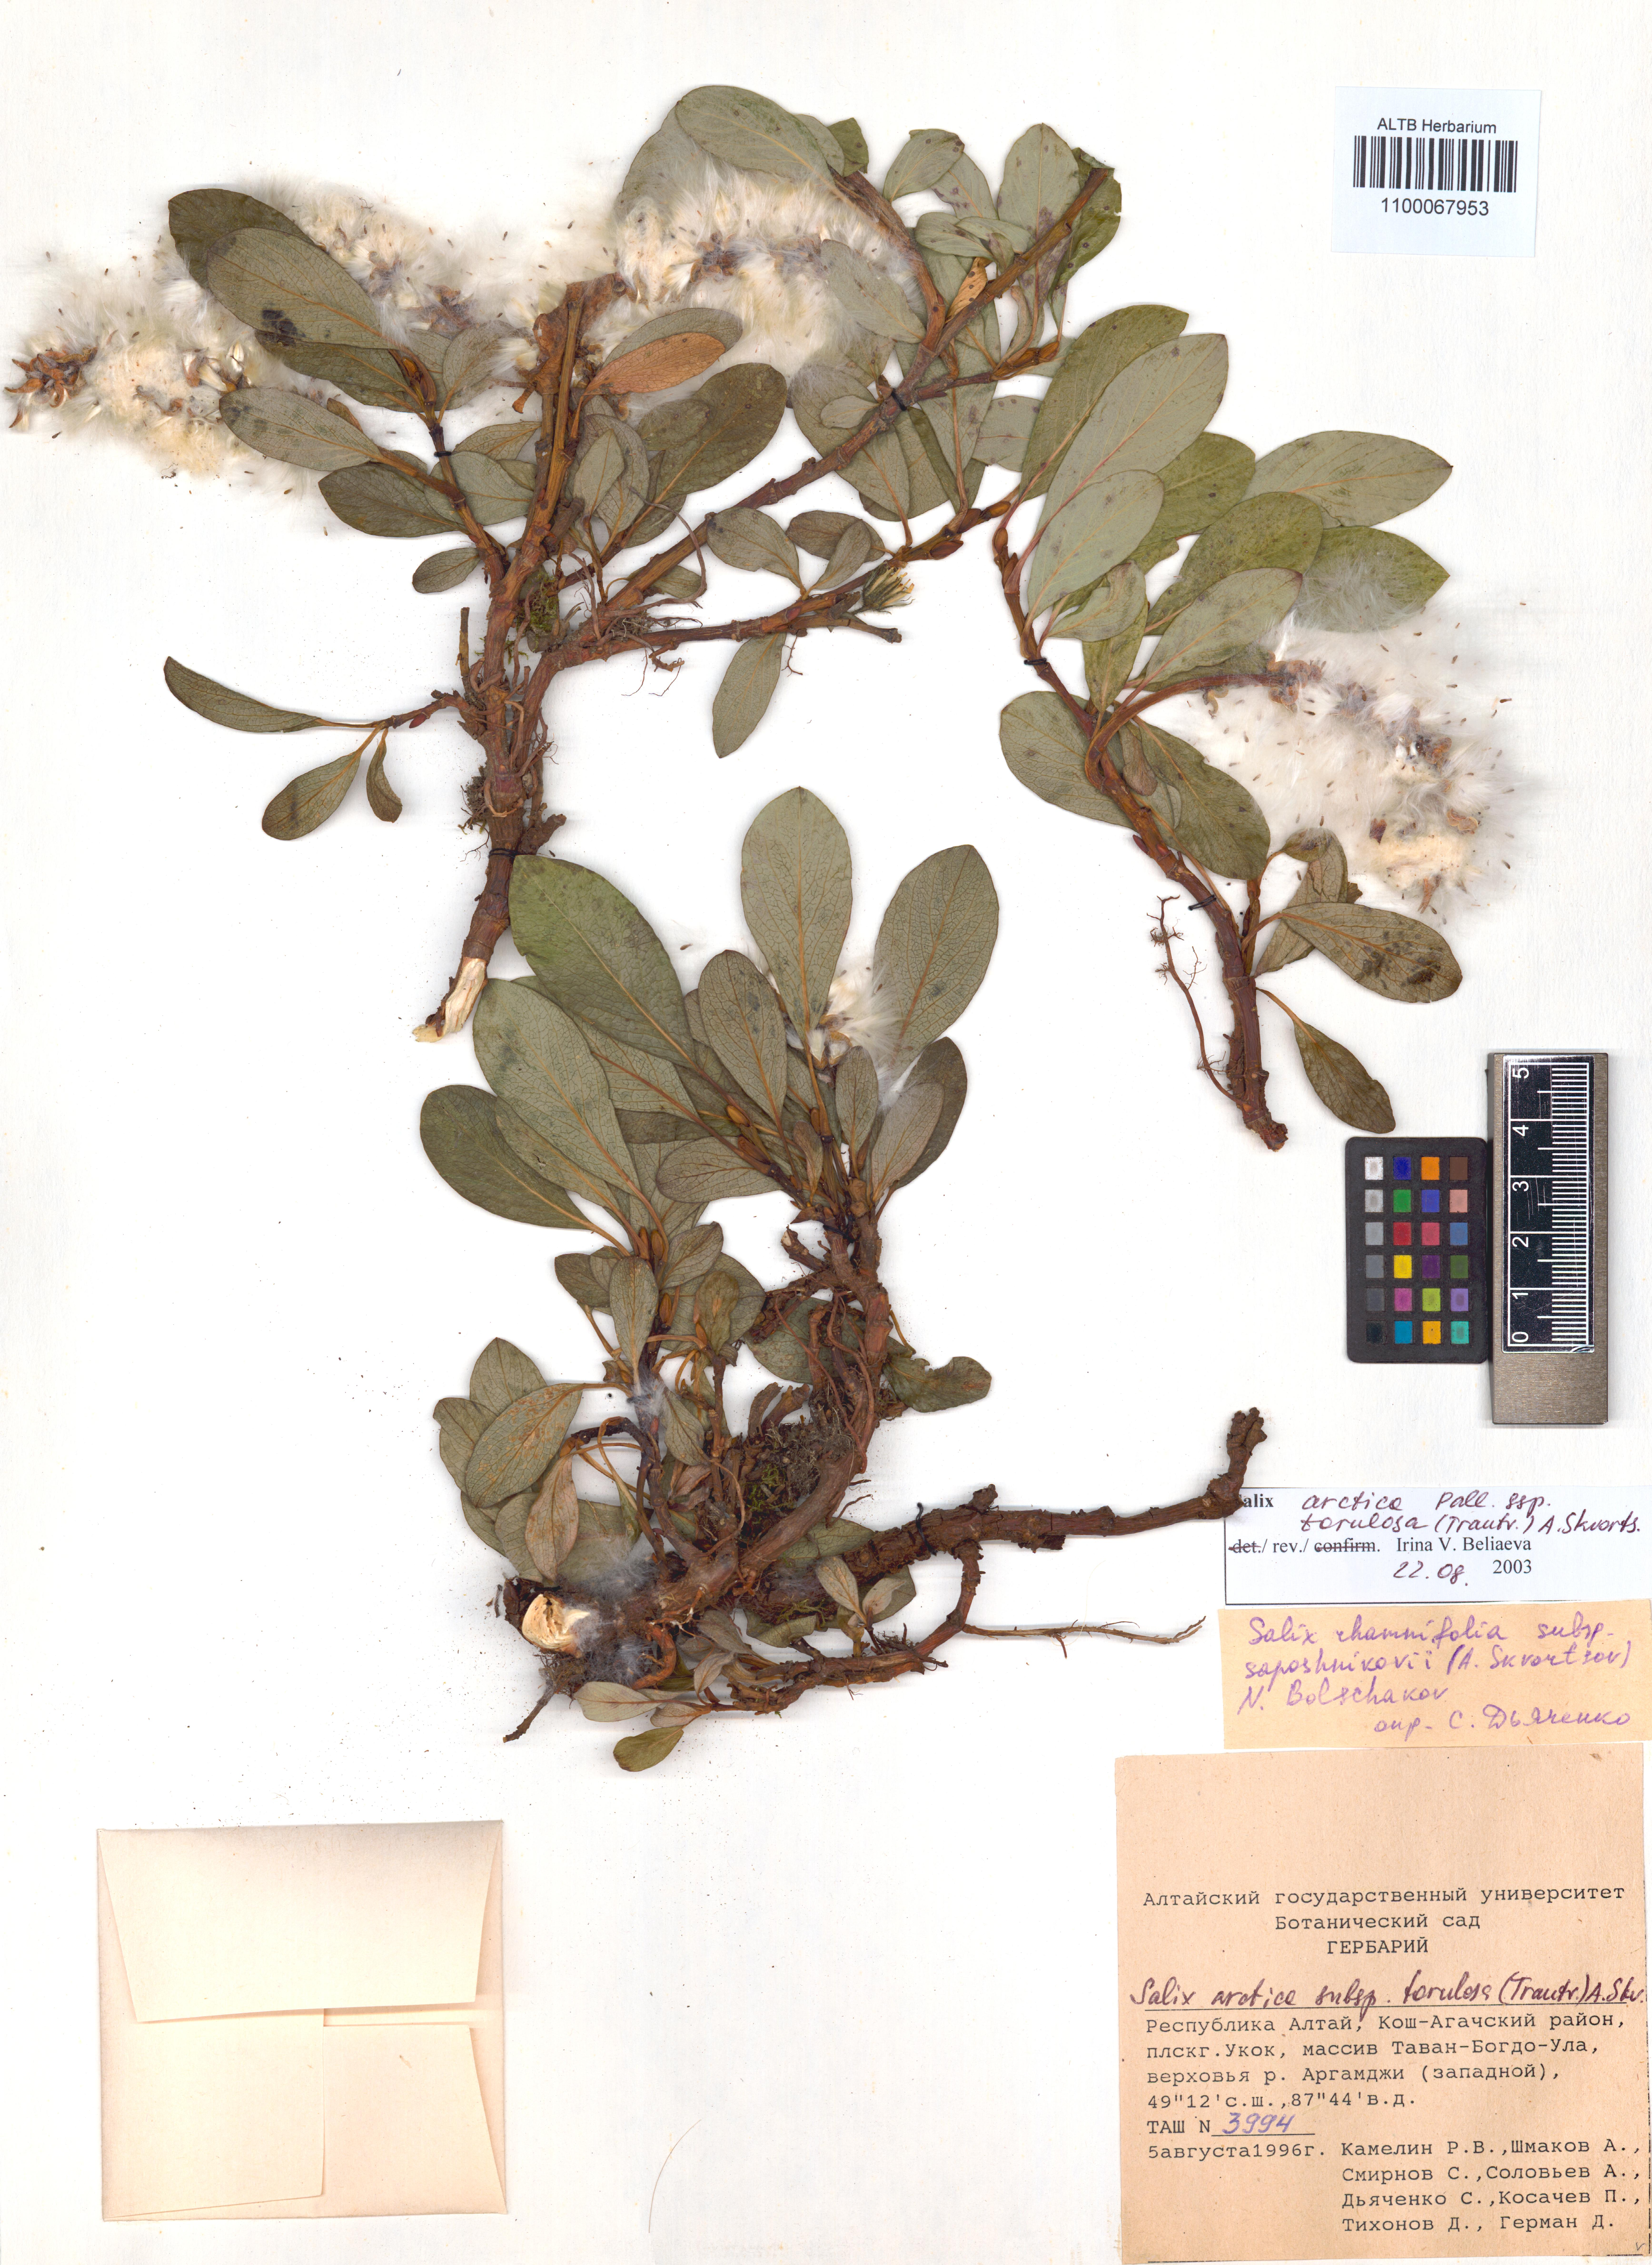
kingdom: Plantae
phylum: Tracheophyta
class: Magnoliopsida
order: Malpighiales
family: Salicaceae
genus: Salix
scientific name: Salix arctica
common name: Arctic willow
